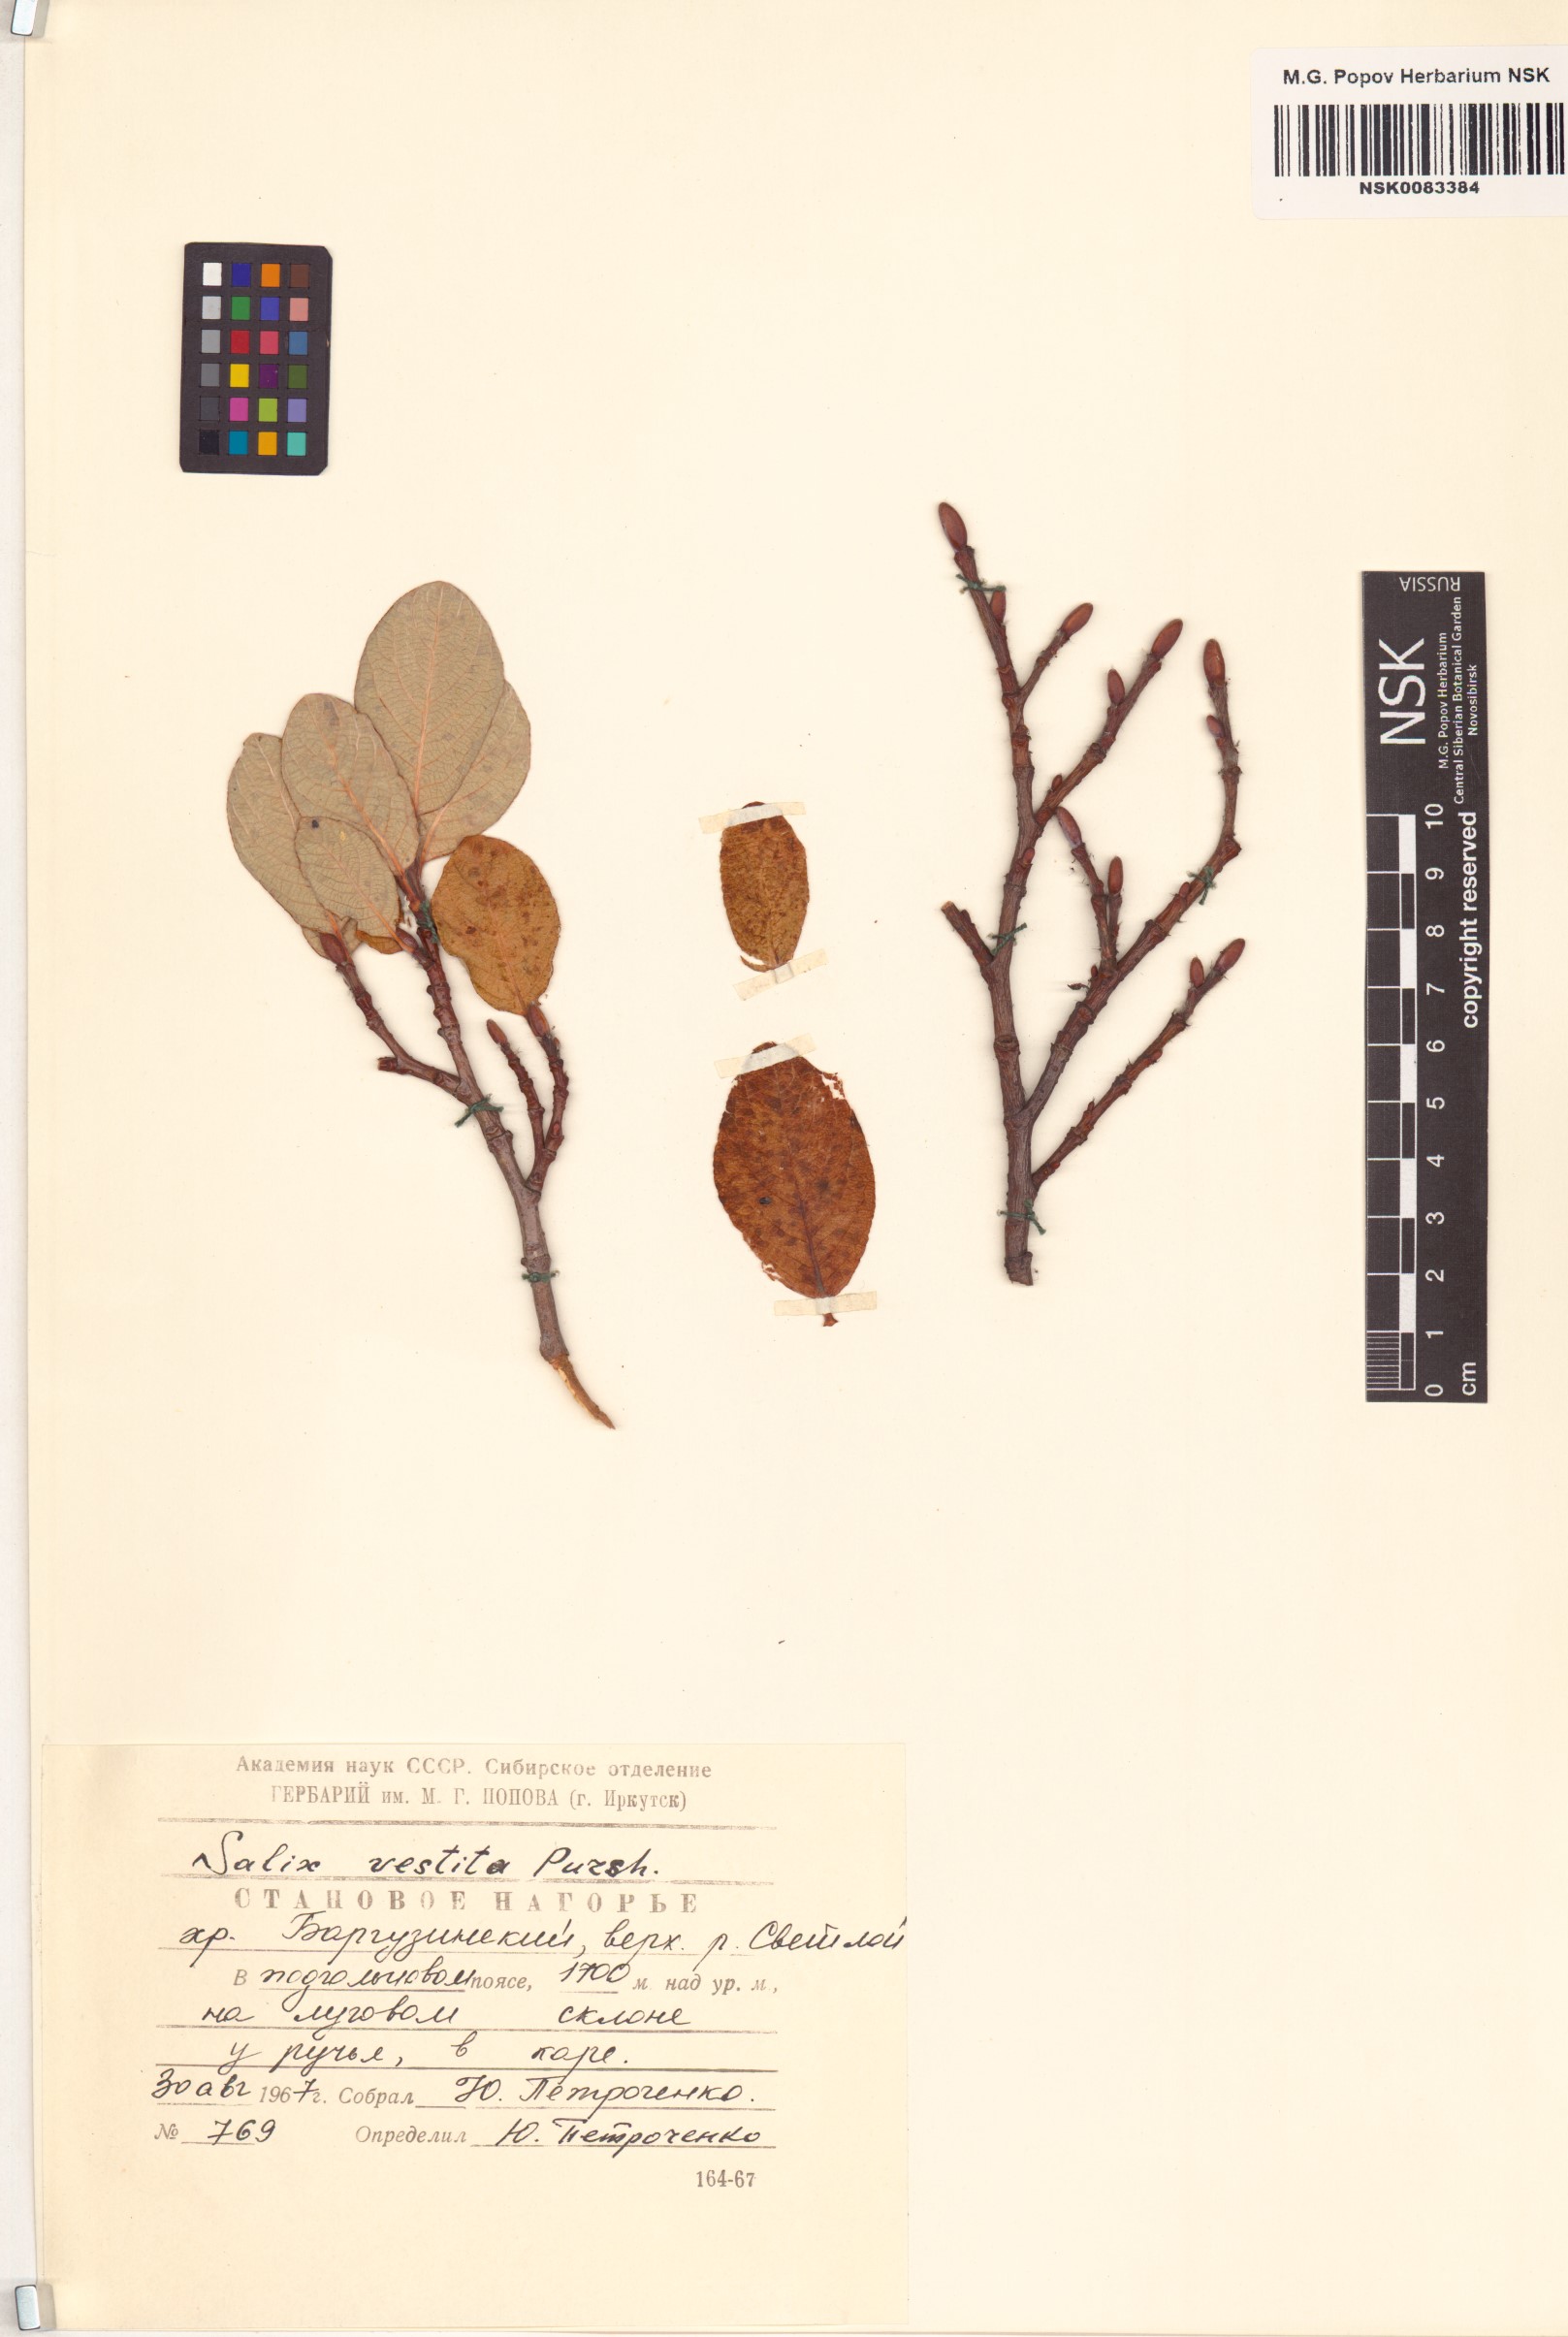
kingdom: Plantae
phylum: Tracheophyta
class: Magnoliopsida
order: Malpighiales
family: Salicaceae
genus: Salix
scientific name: Salix vestita
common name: Hairy willow
